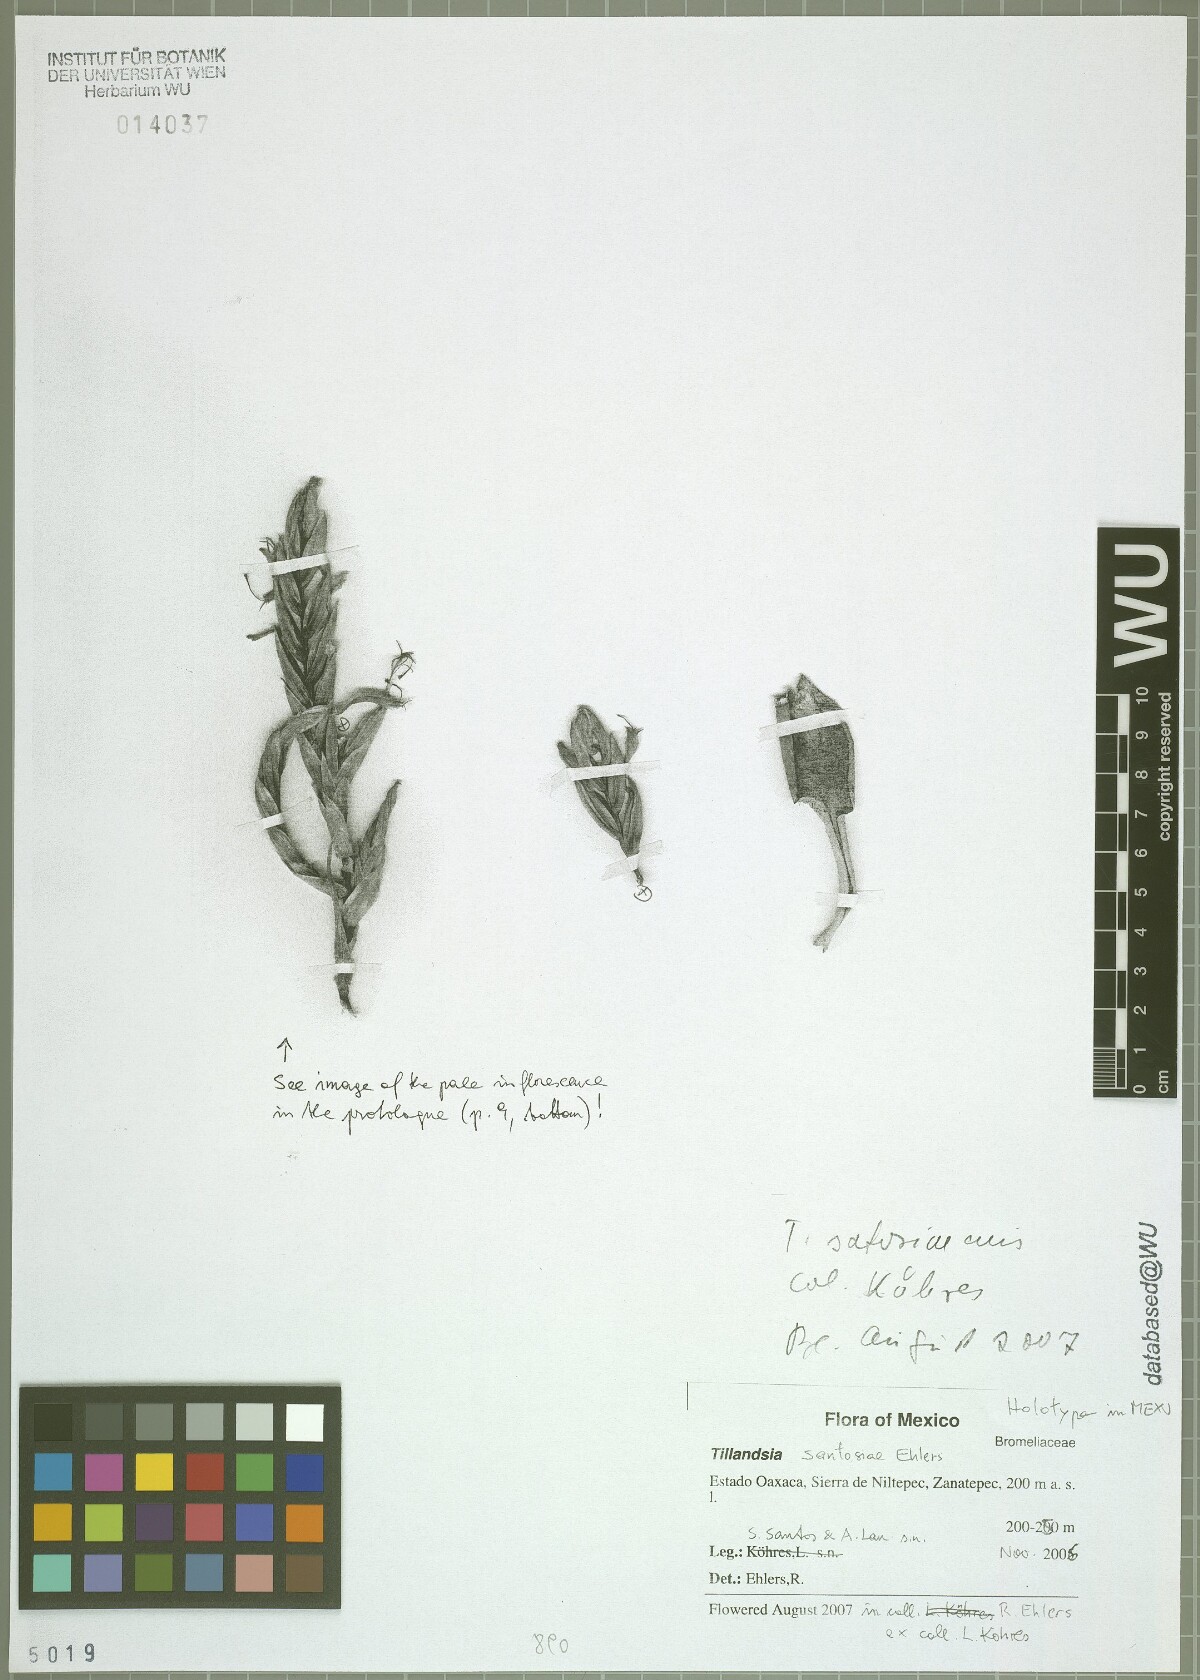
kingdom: Plantae
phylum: Tracheophyta
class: Liliopsida
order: Poales
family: Bromeliaceae
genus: Tillandsia
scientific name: Tillandsia santosiae
